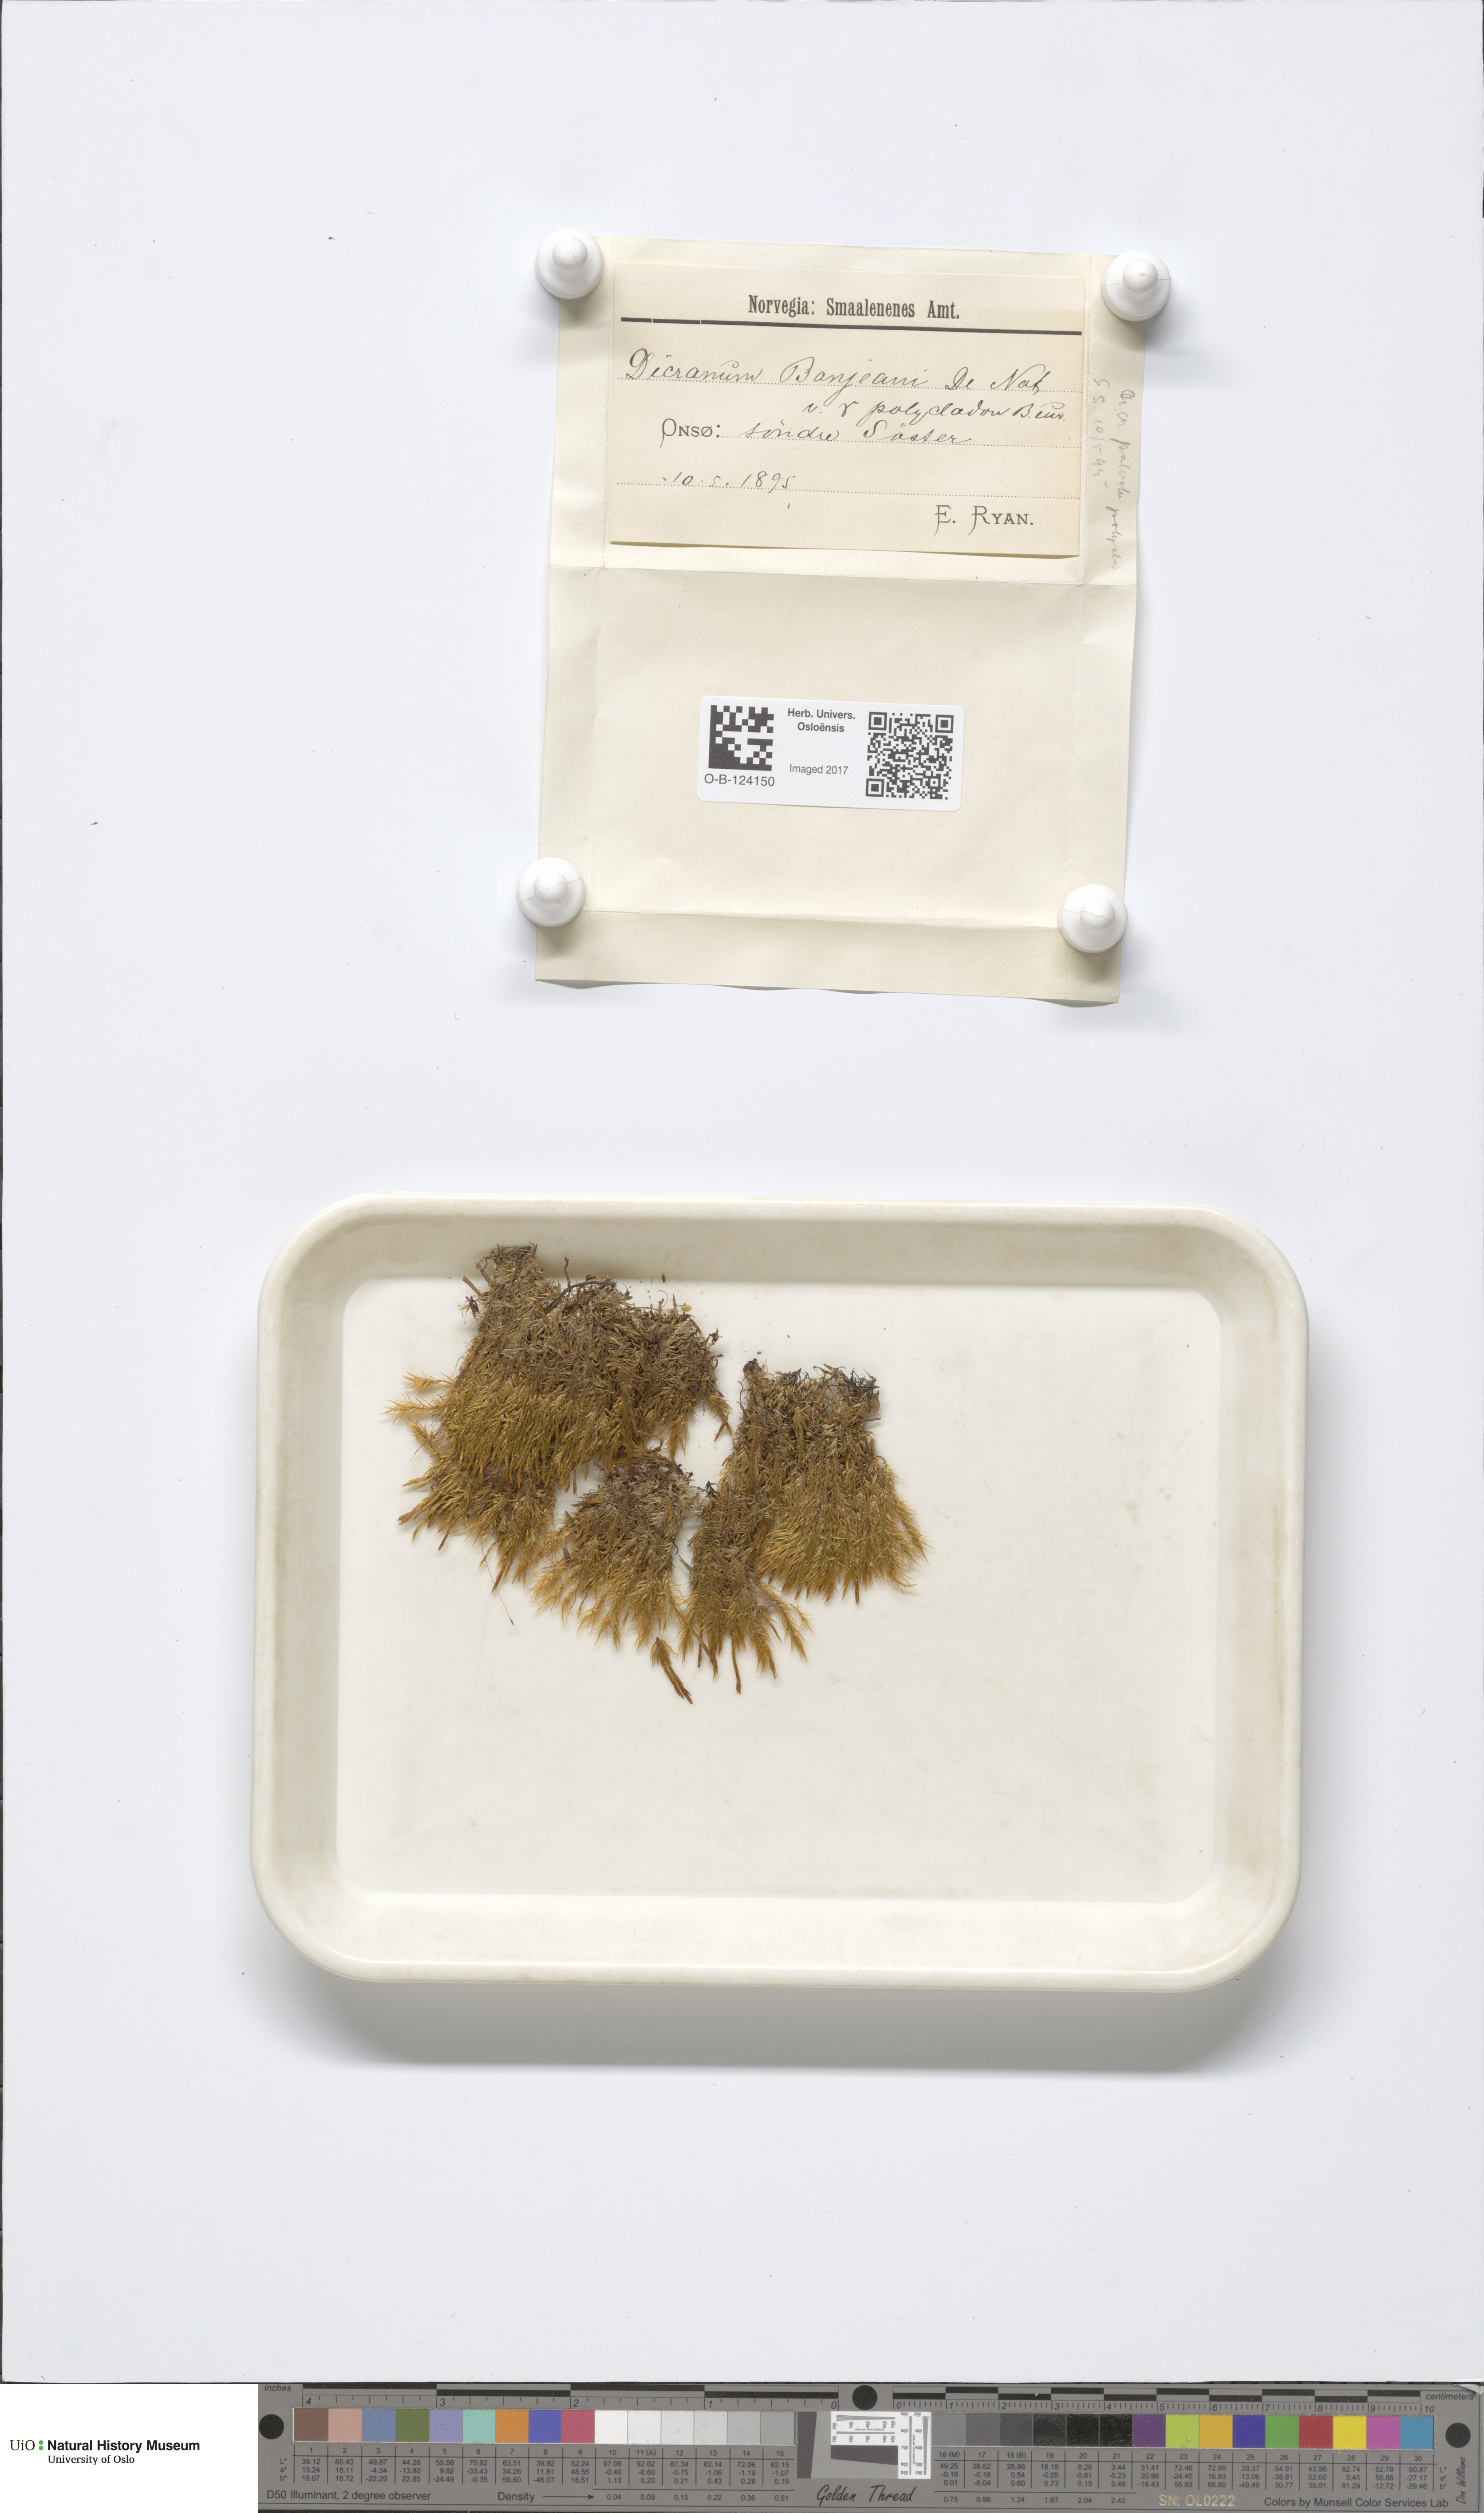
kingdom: Plantae
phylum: Bryophyta
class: Bryopsida
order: Dicranales
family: Dicranaceae
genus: Dicranum
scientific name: Dicranum bonjeanii
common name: Bonjean's broom moss
